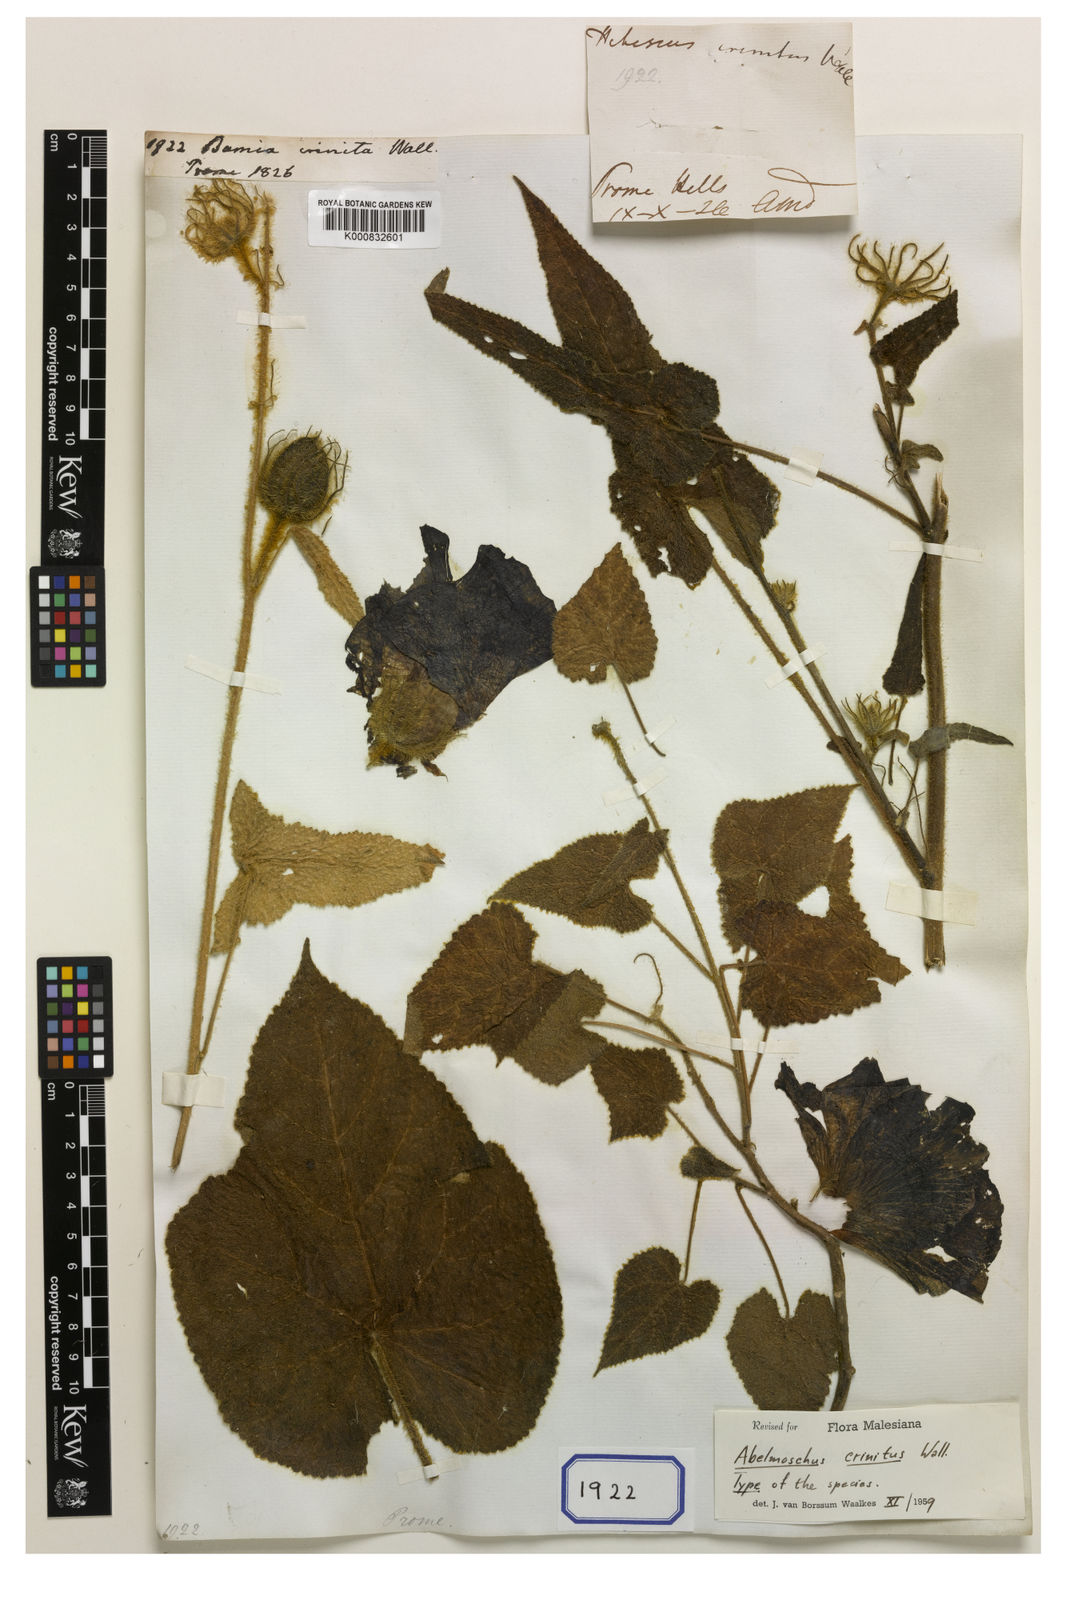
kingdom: Plantae
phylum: Tracheophyta
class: Magnoliopsida
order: Malvales
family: Malvaceae
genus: Abelmoschus
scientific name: Abelmoschus crinitus
